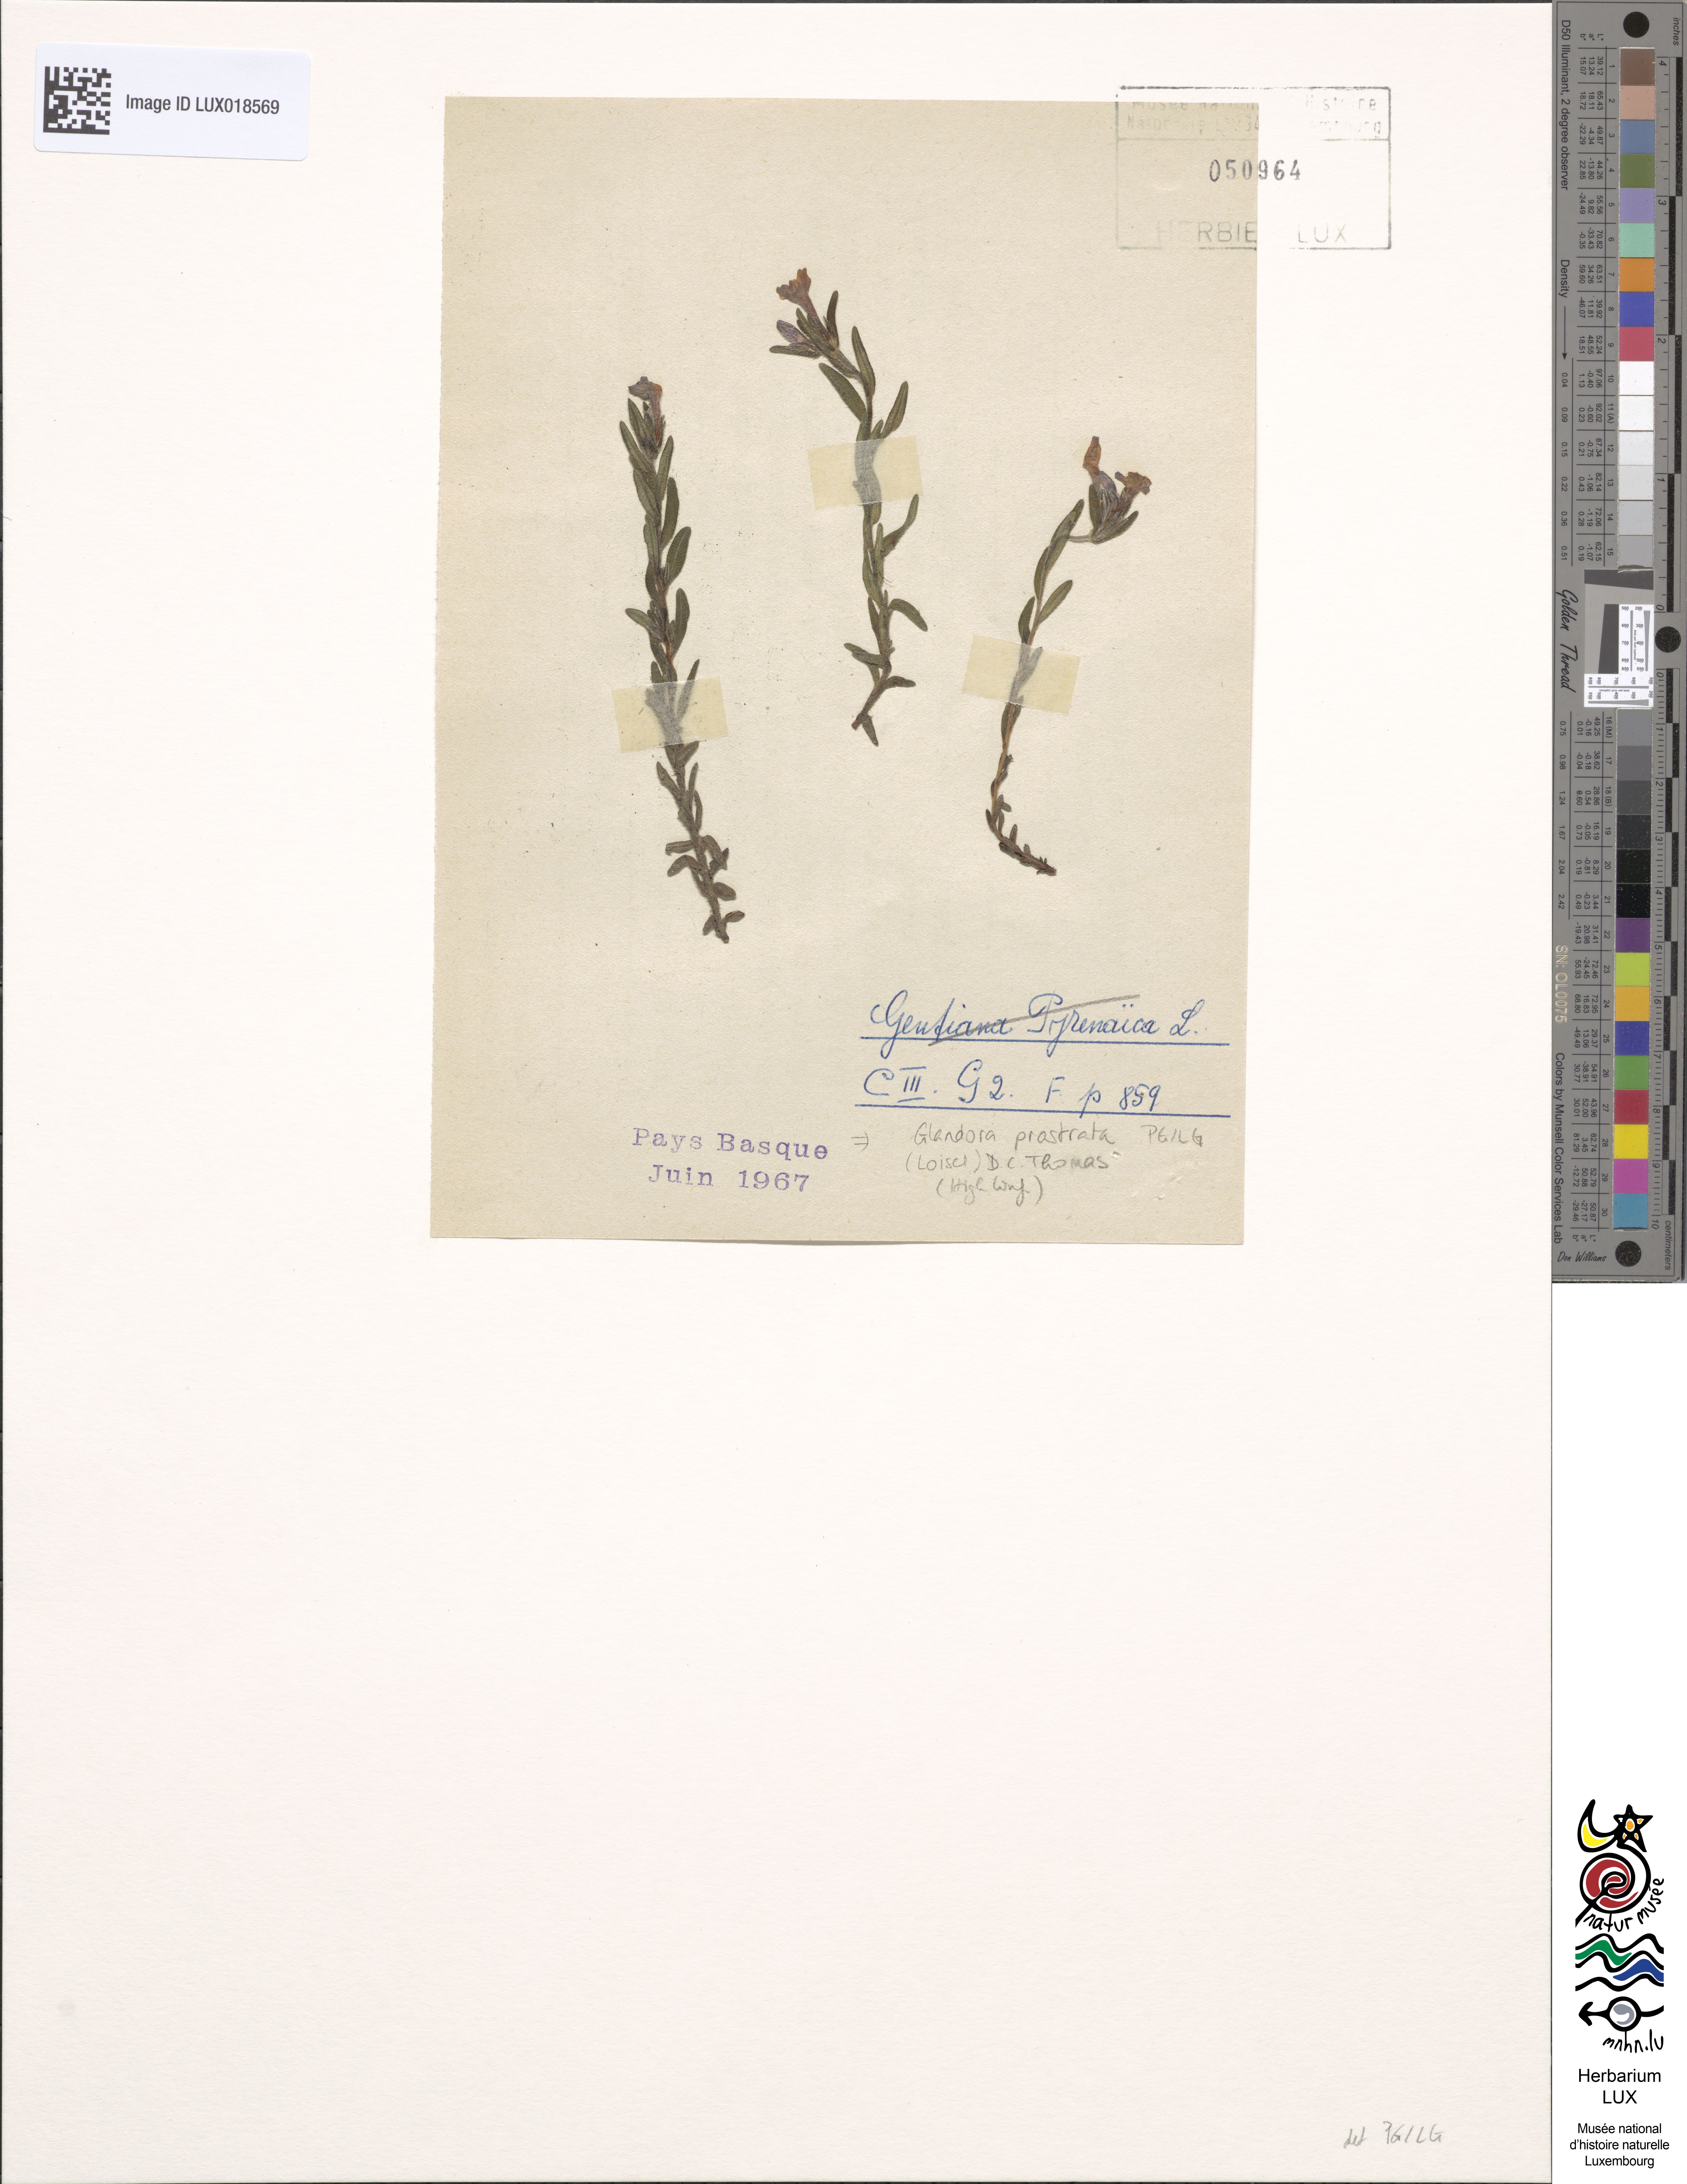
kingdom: Plantae
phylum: Tracheophyta
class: Magnoliopsida
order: Boraginales
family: Boraginaceae
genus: Glandora
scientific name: Glandora prostrata
